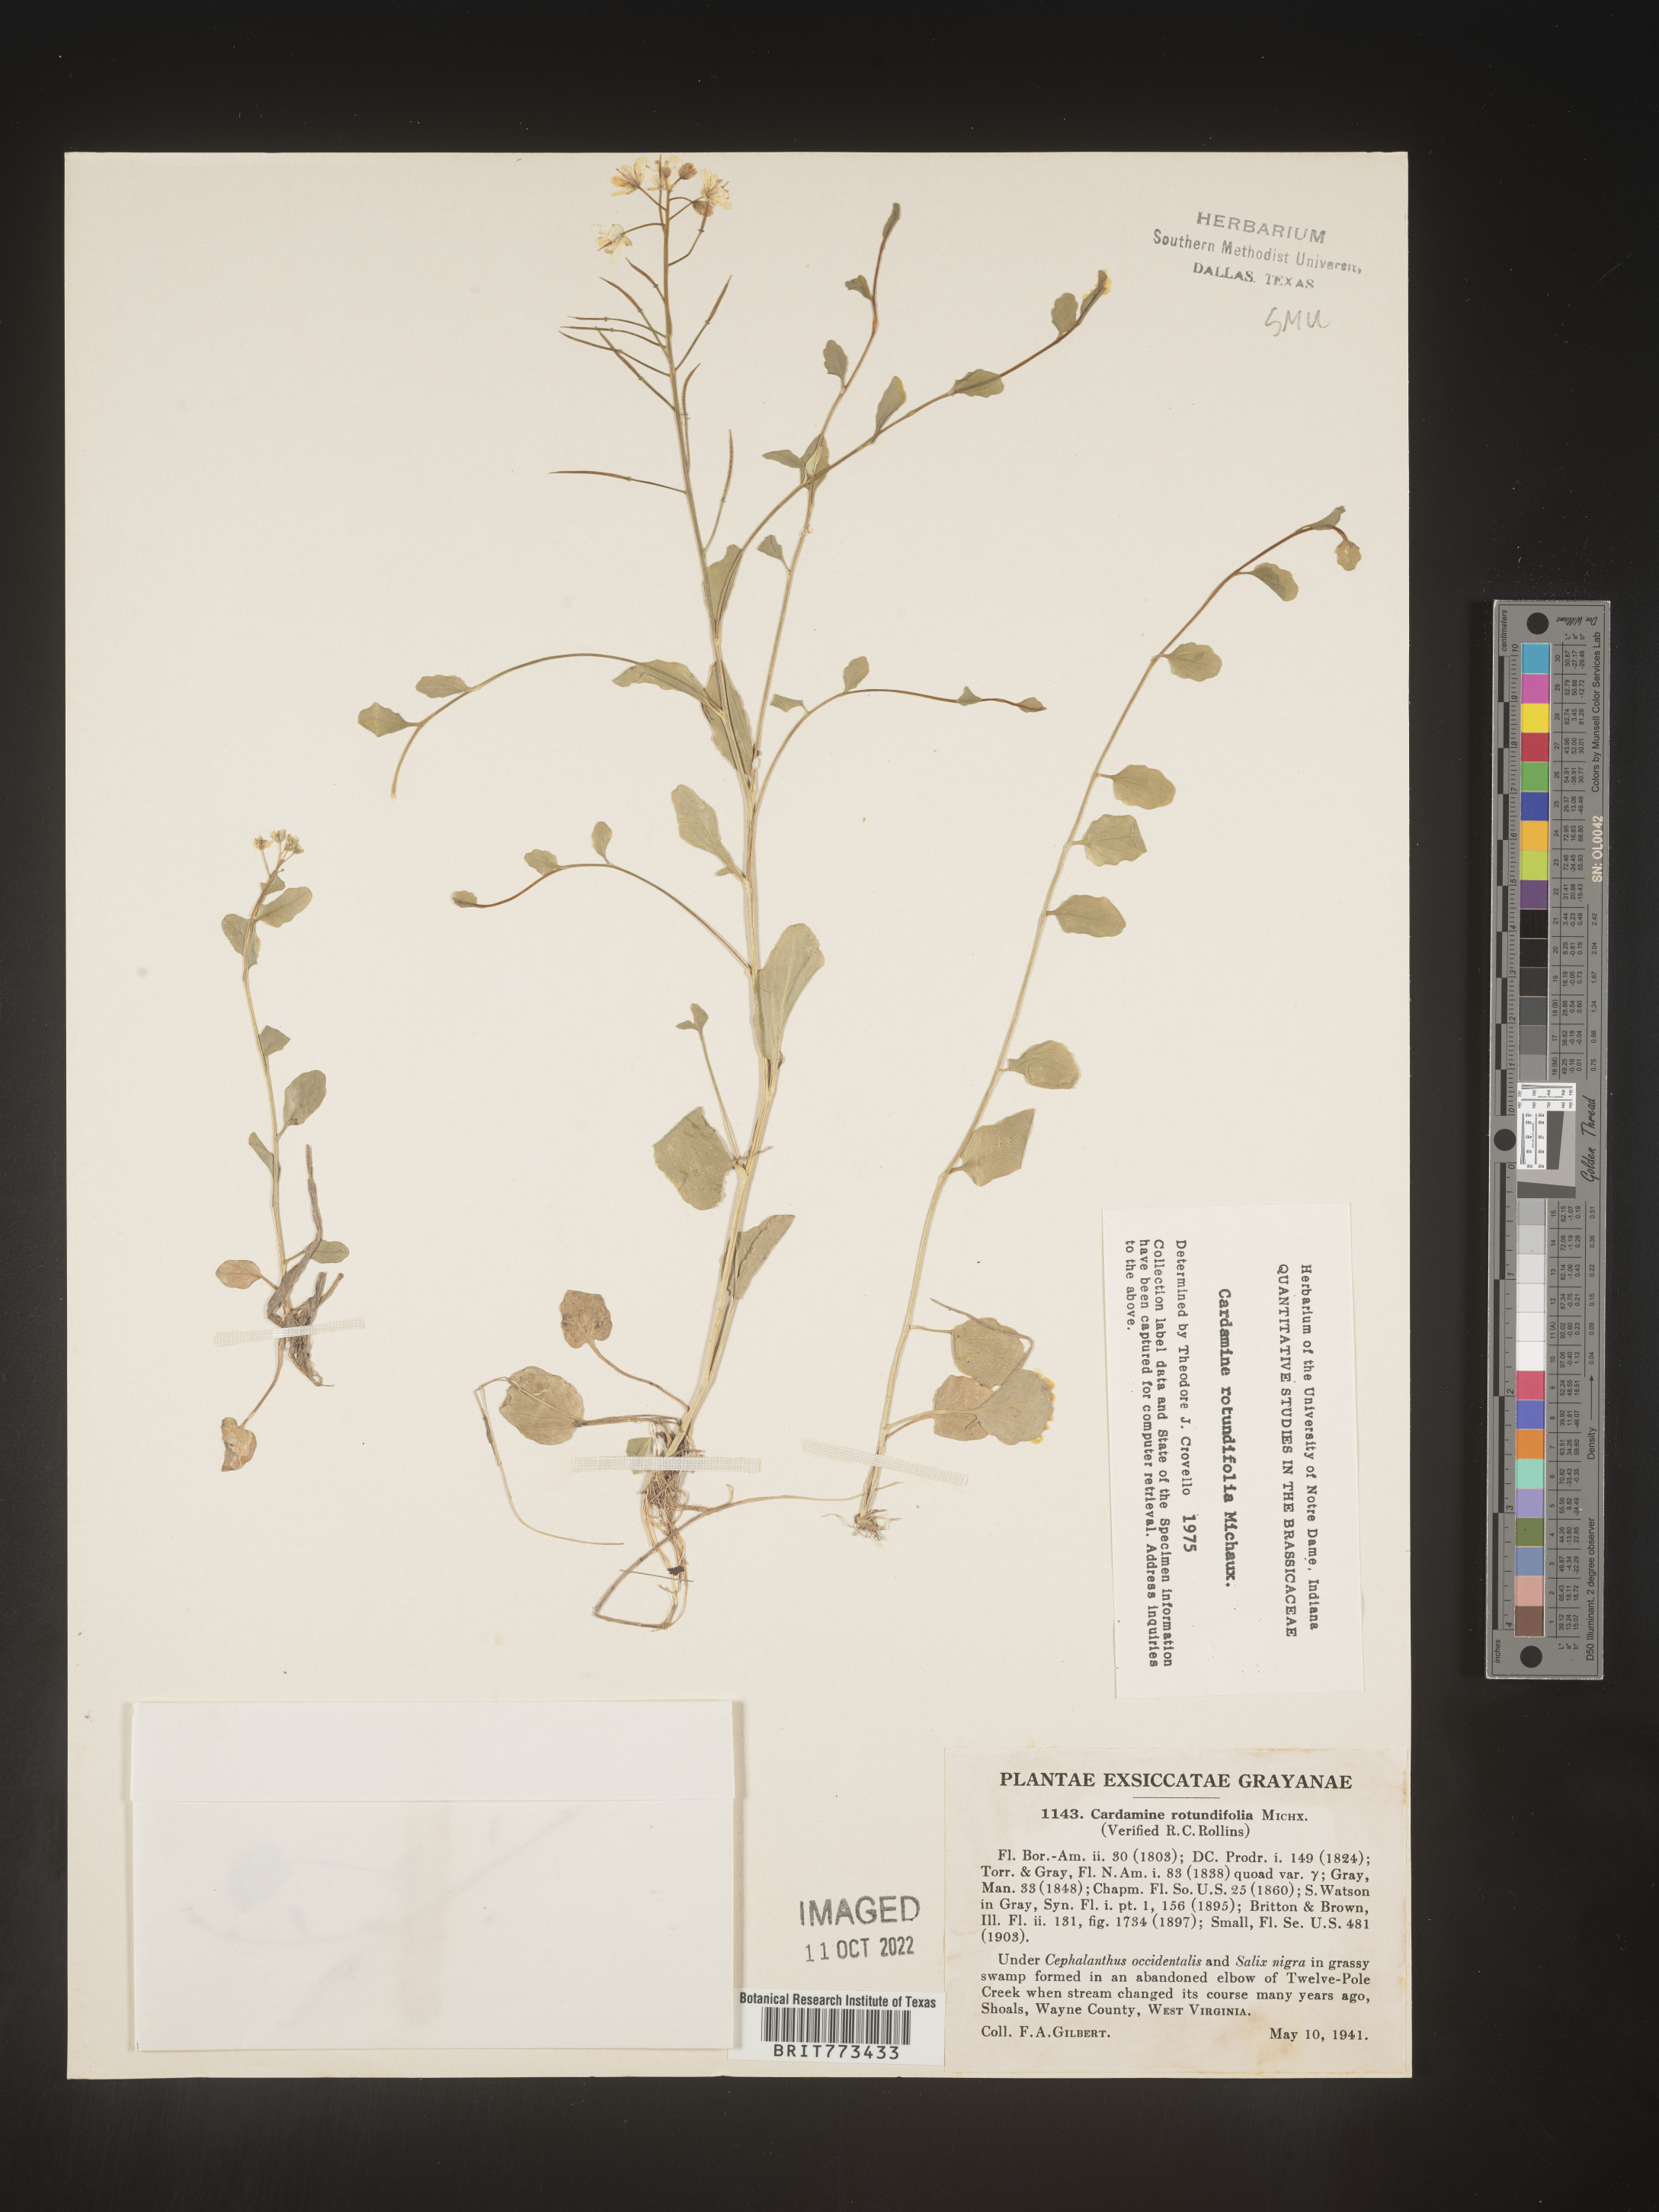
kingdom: Plantae
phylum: Tracheophyta
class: Magnoliopsida
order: Brassicales
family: Brassicaceae
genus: Cardamine
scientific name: Cardamine
